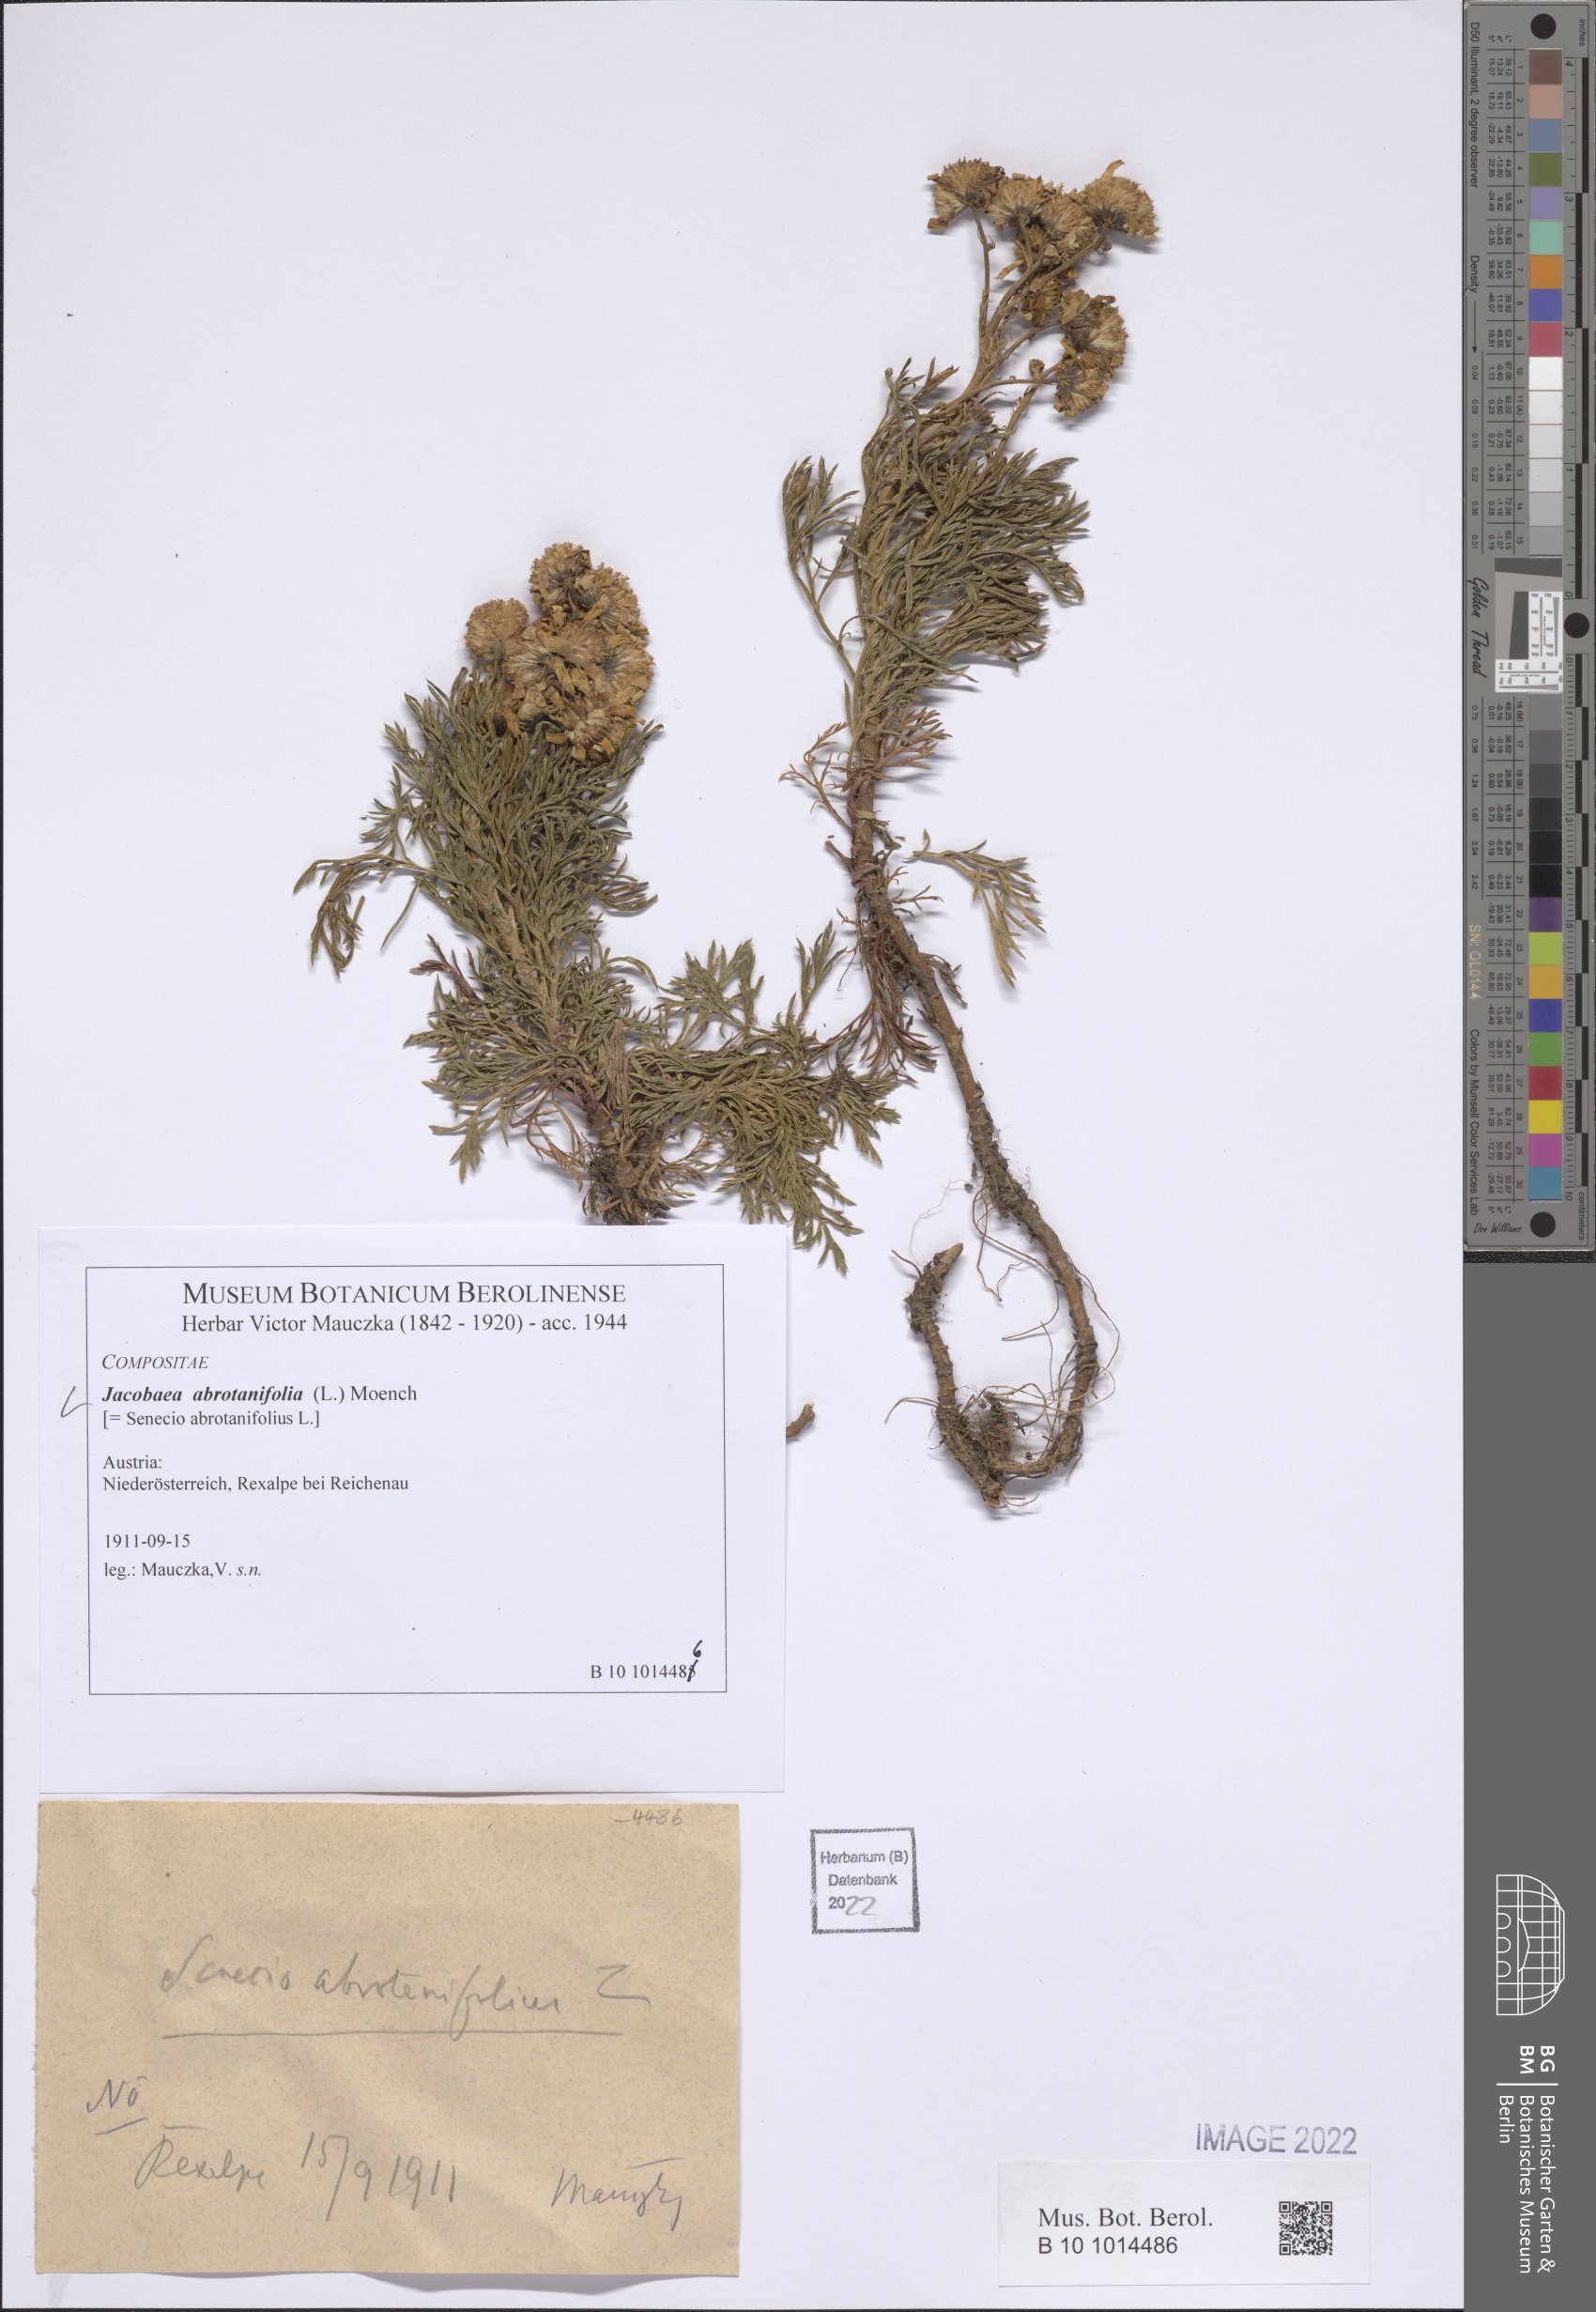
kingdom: Plantae
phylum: Tracheophyta
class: Magnoliopsida
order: Asterales
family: Asteraceae
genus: Jacobaea
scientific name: Jacobaea abrotanifolia
